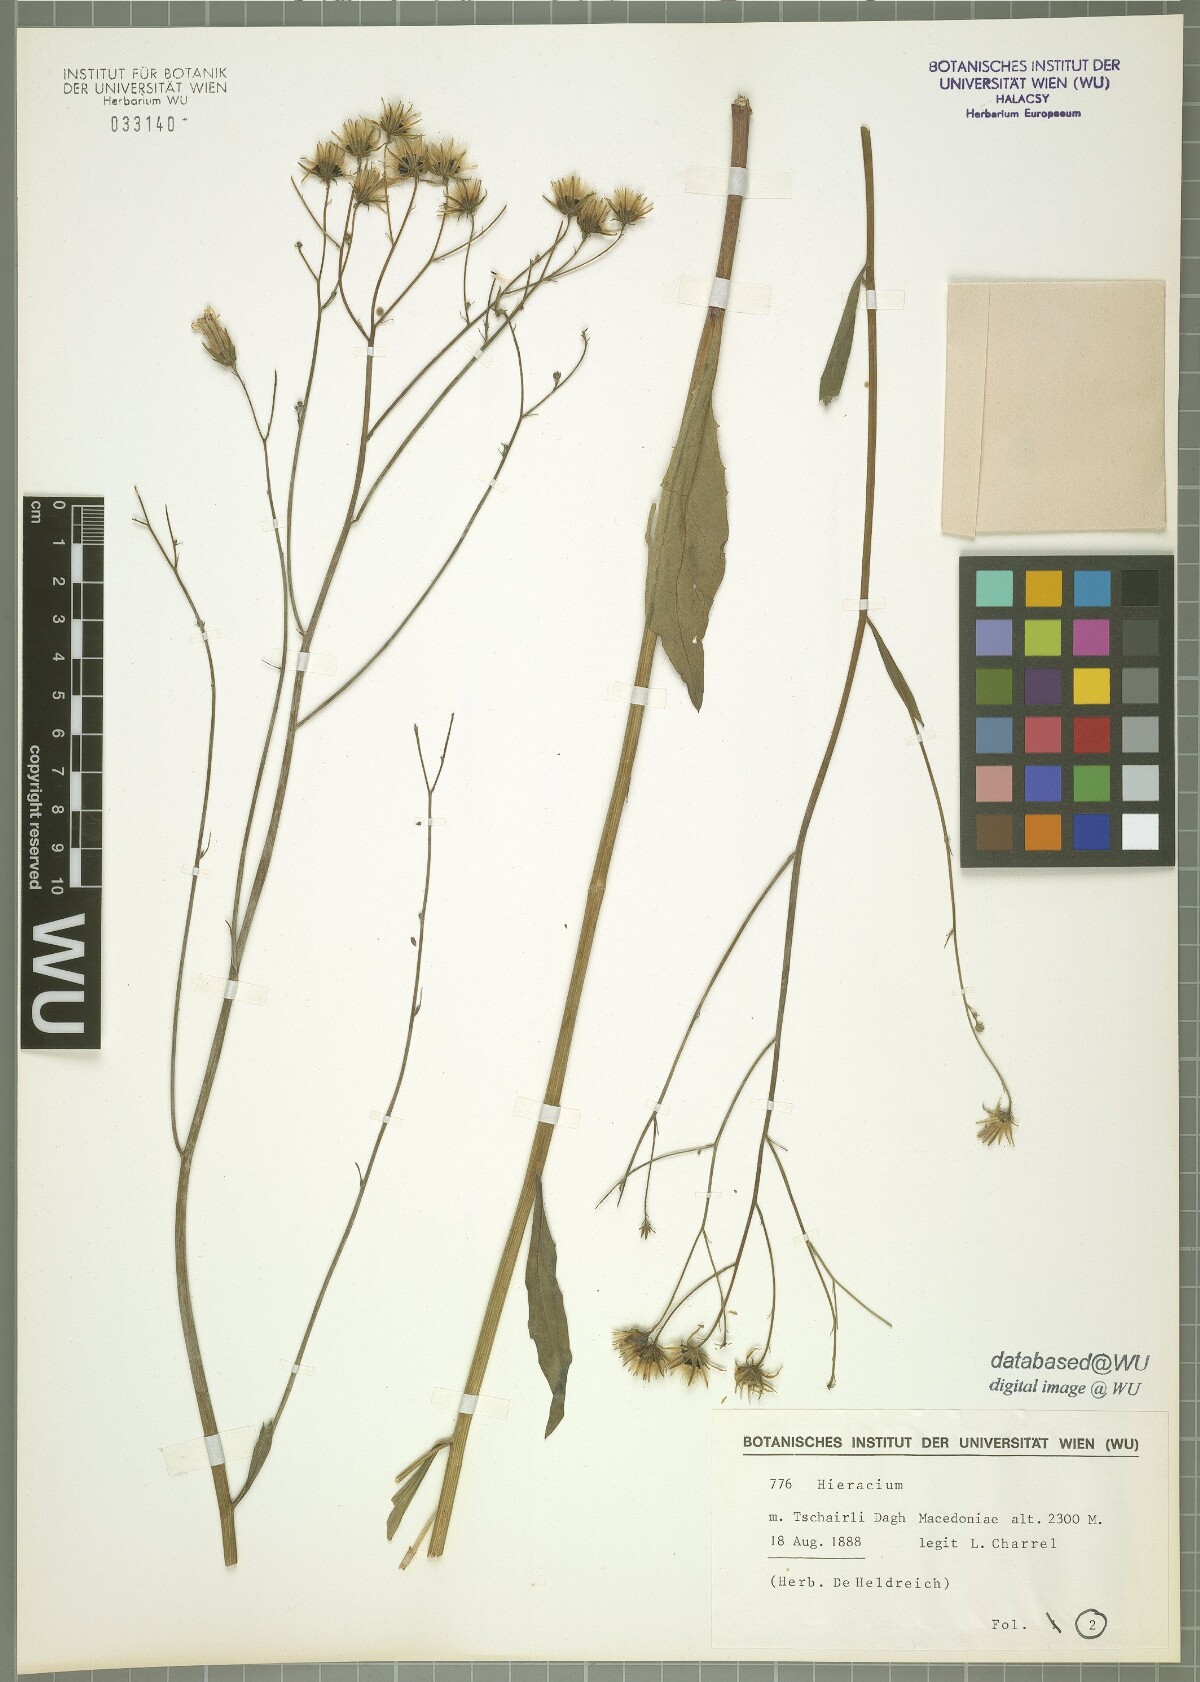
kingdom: Plantae
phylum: Tracheophyta
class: Magnoliopsida
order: Asterales
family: Asteraceae
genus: Hieracium
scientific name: Hieracium sparsum
